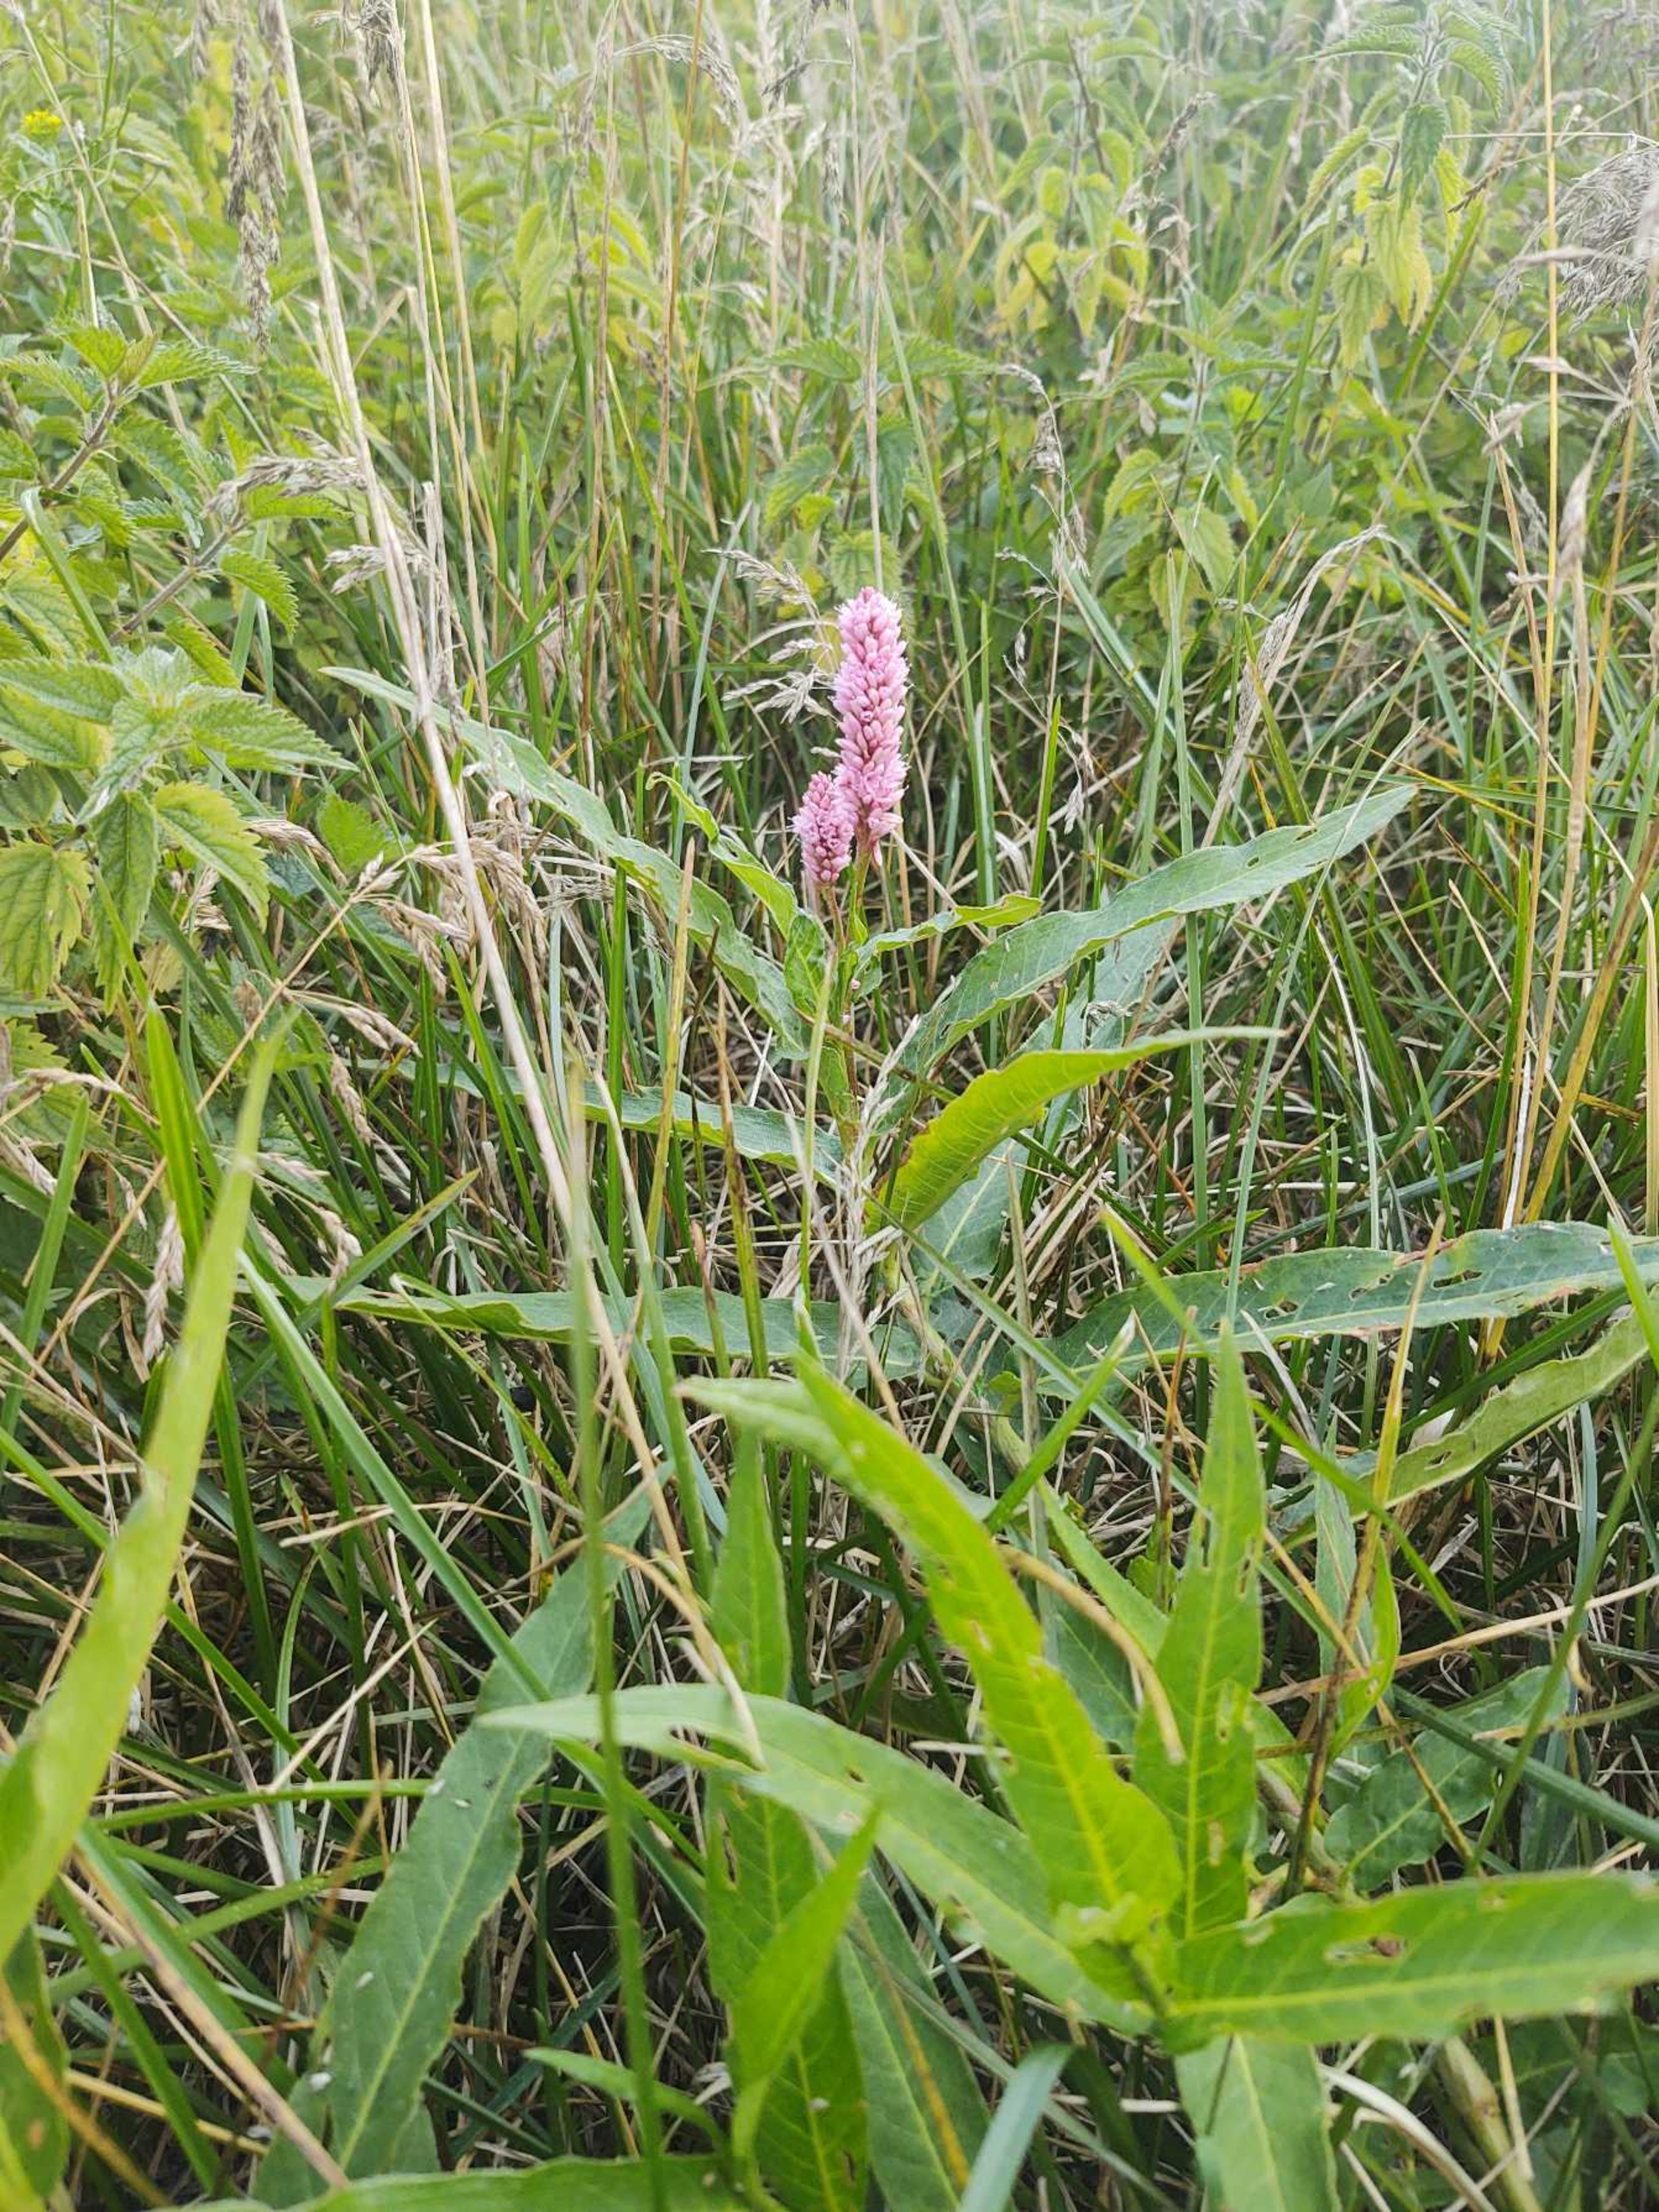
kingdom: Plantae
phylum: Tracheophyta
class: Magnoliopsida
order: Caryophyllales
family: Polygonaceae
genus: Persicaria
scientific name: Persicaria amphibia
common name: Vand-pileurt
